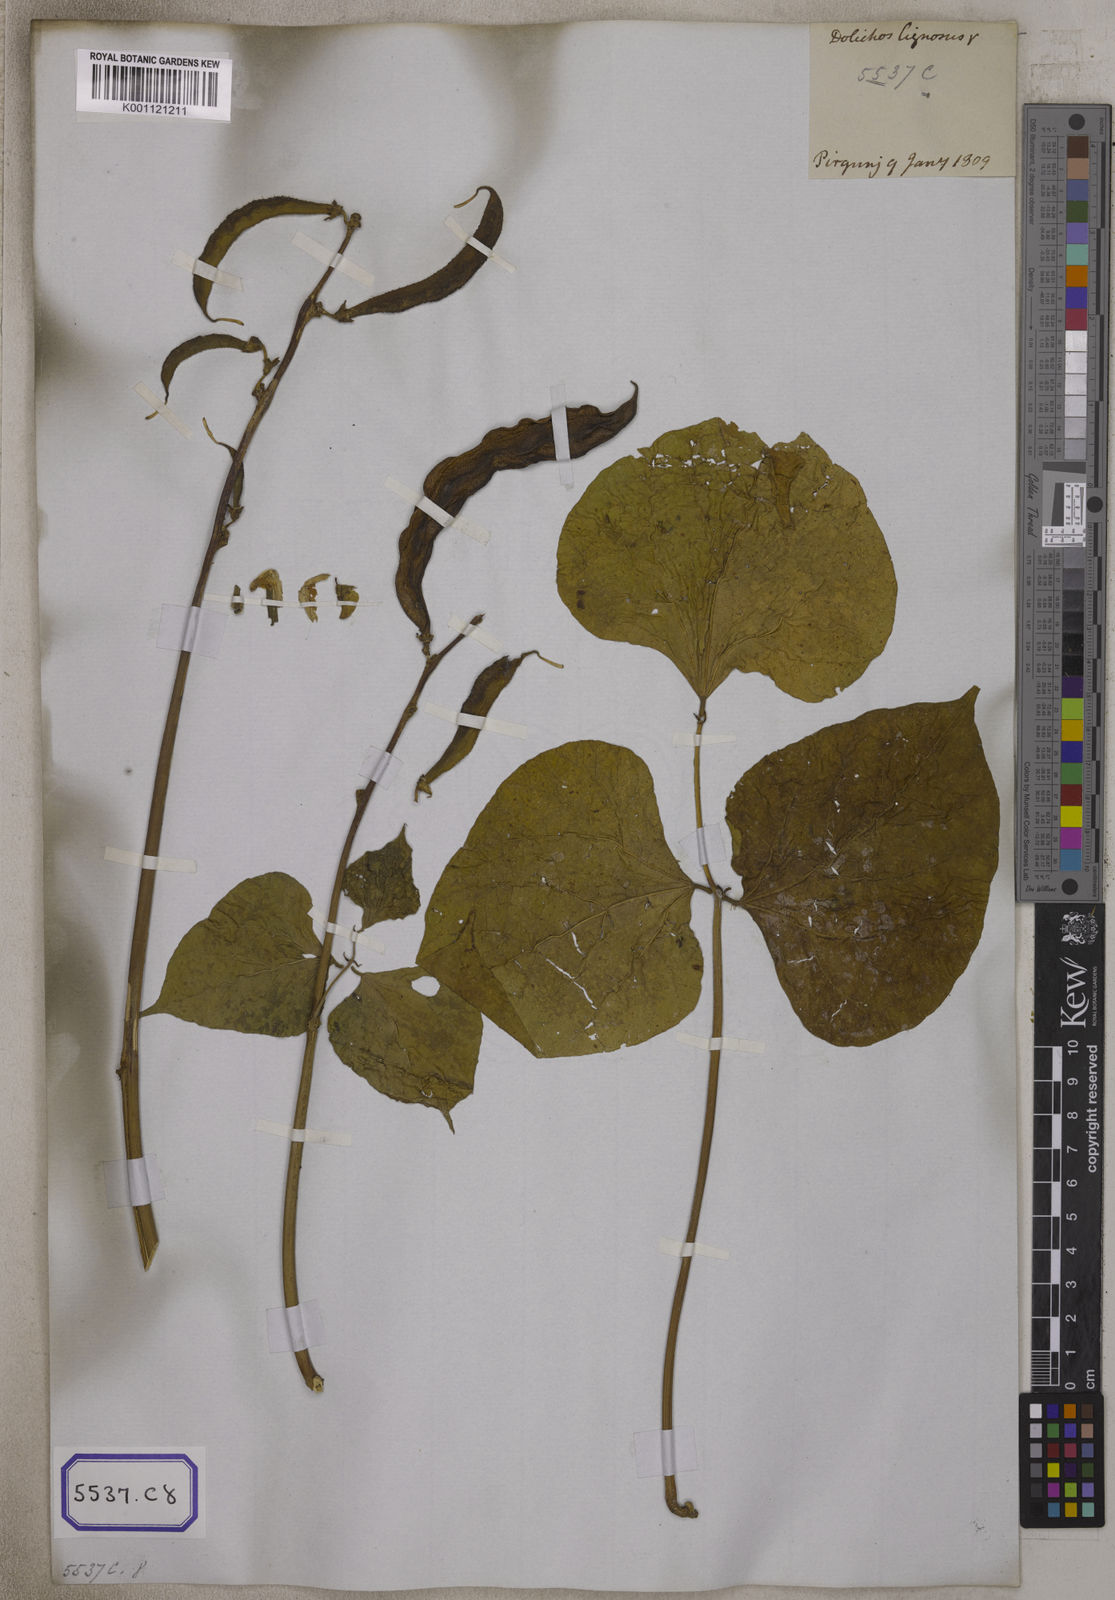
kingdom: Plantae
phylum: Tracheophyta
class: Magnoliopsida
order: Fabales
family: Fabaceae
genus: Lablab
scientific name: Lablab purpureus
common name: Lablab-bean
